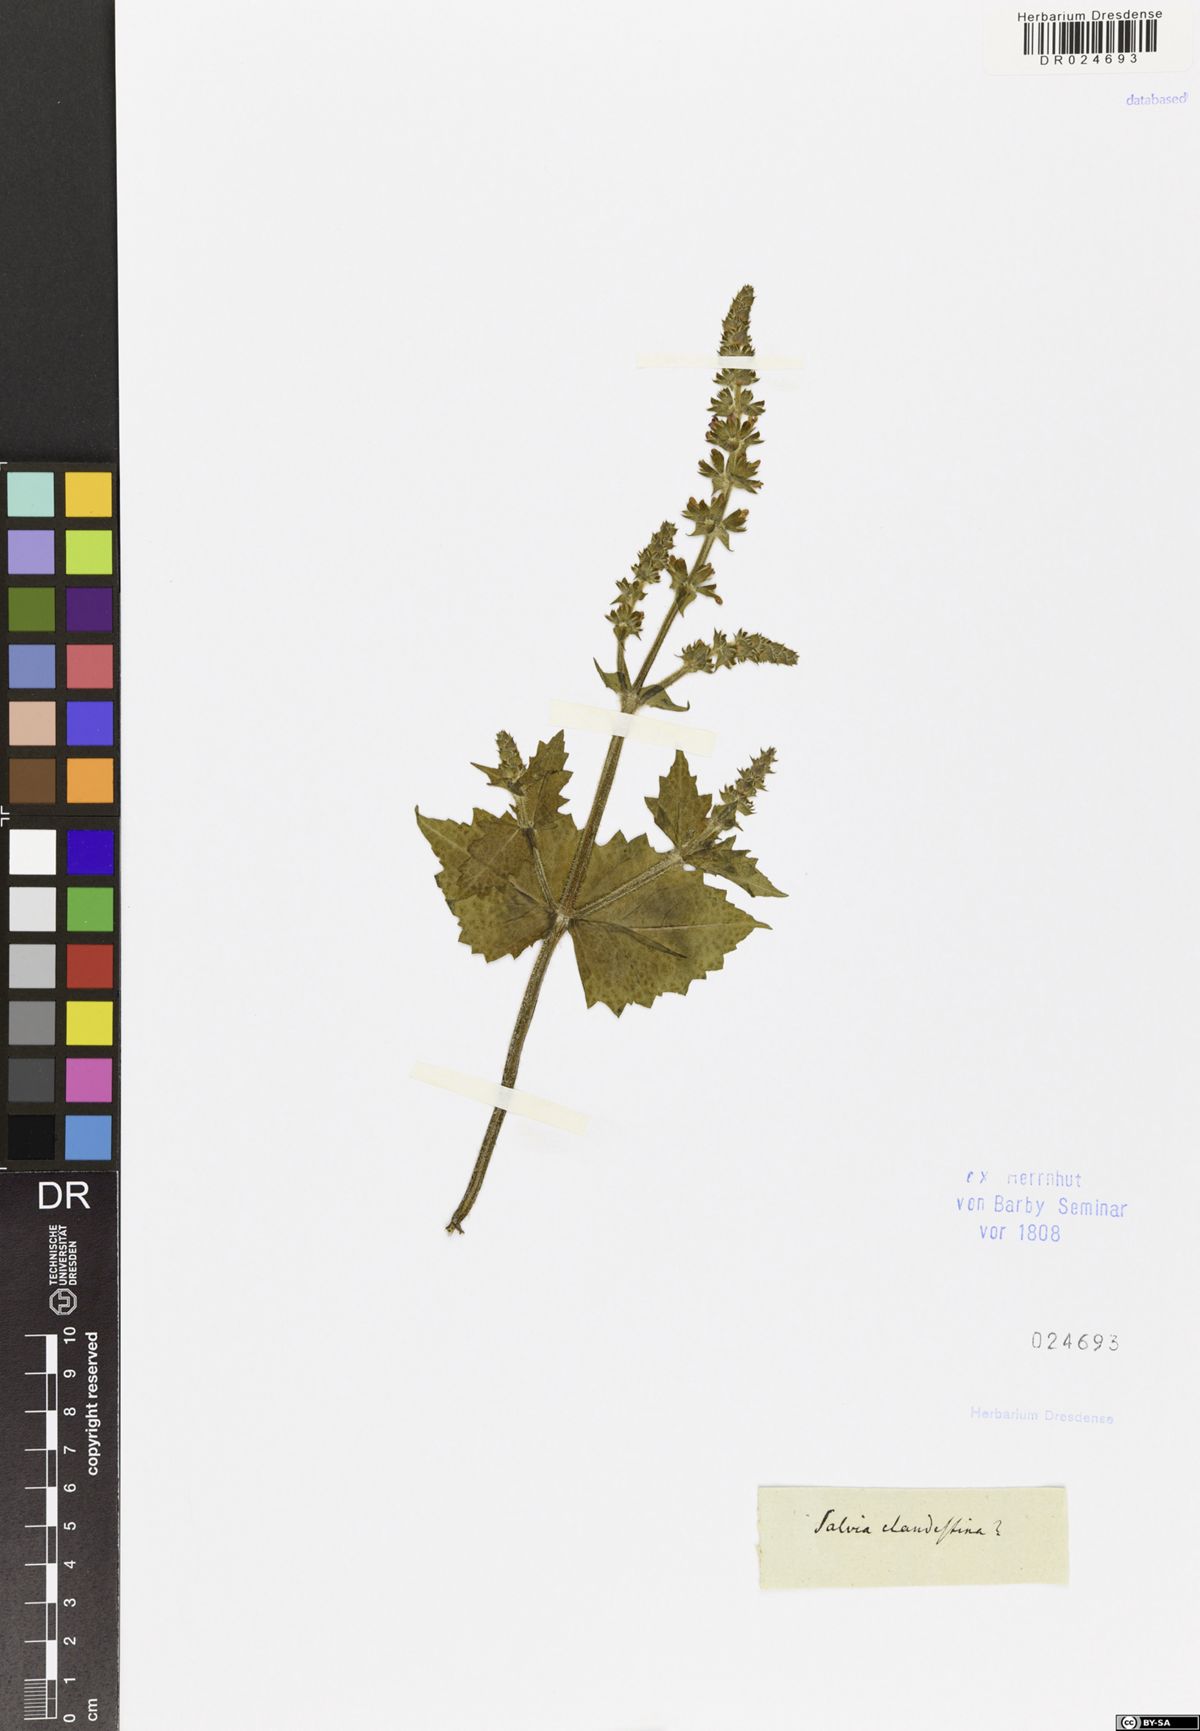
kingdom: Plantae
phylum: Tracheophyta
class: Magnoliopsida
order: Lamiales
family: Lamiaceae
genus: Salvia
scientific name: Salvia verbenaca
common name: Wild clary
